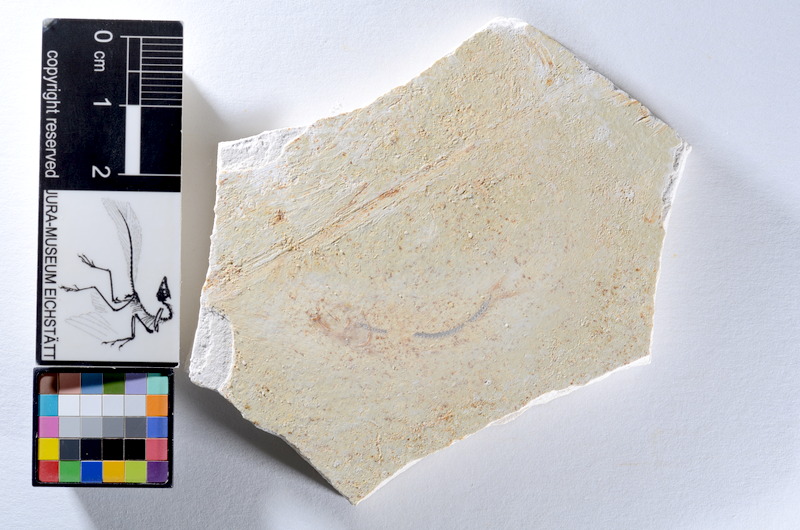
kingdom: Animalia
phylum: Chordata
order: Salmoniformes
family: Orthogonikleithridae
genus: Orthogonikleithrus
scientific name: Orthogonikleithrus hoelli
